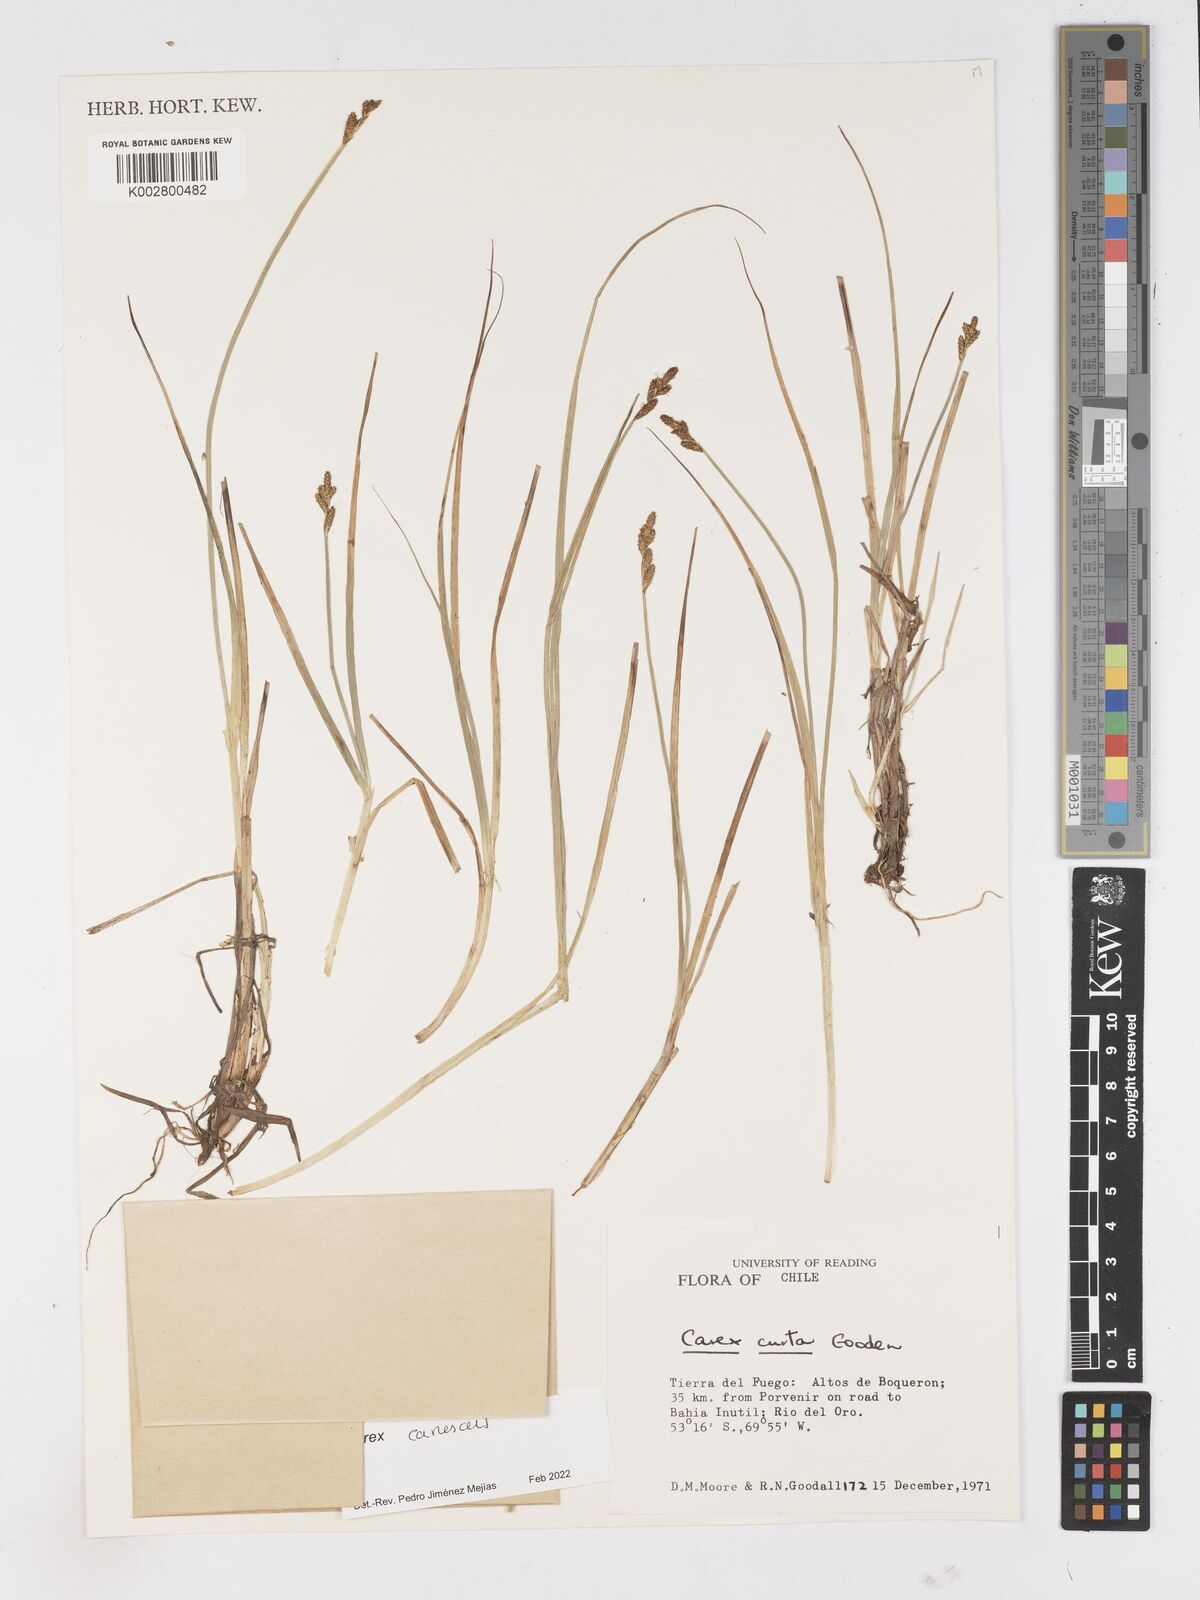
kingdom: Plantae
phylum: Tracheophyta
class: Liliopsida
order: Poales
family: Cyperaceae
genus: Carex
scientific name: Carex curta
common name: White sedge
